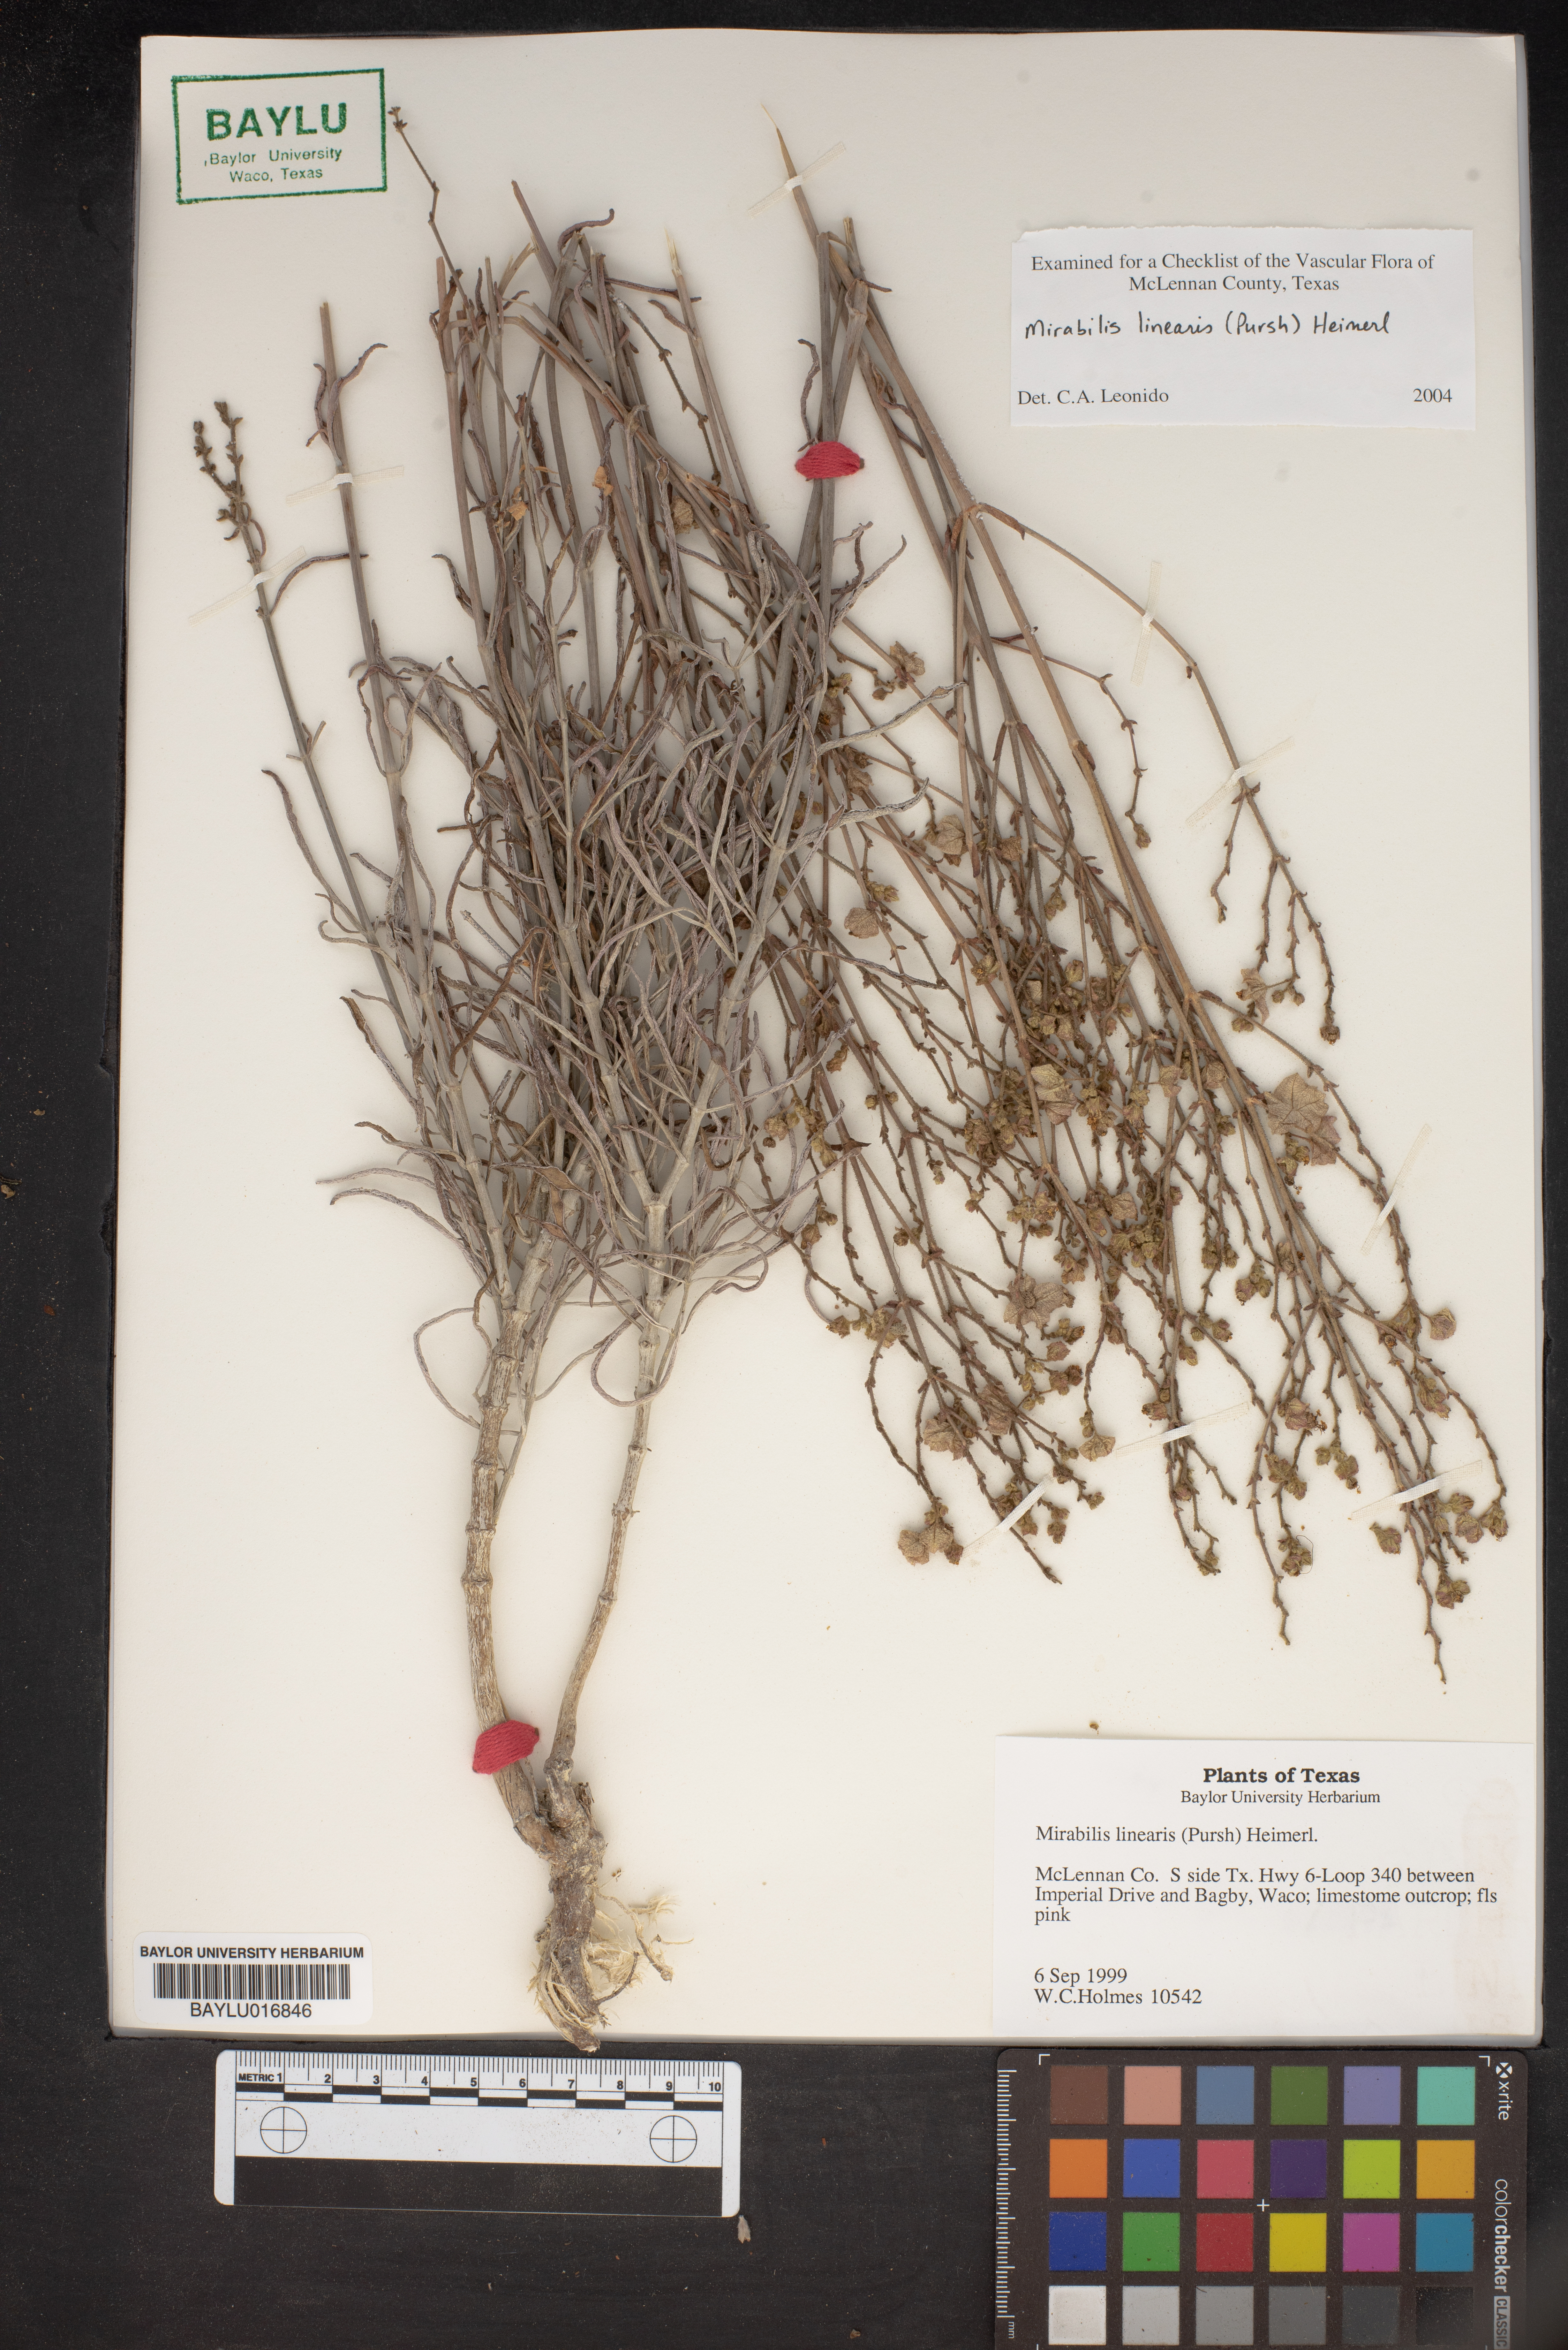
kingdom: Plantae
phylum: Tracheophyta
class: Magnoliopsida
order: Caryophyllales
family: Nyctaginaceae
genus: Mirabilis
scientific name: Mirabilis linearis
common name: Linear-leaved four-o'clock
